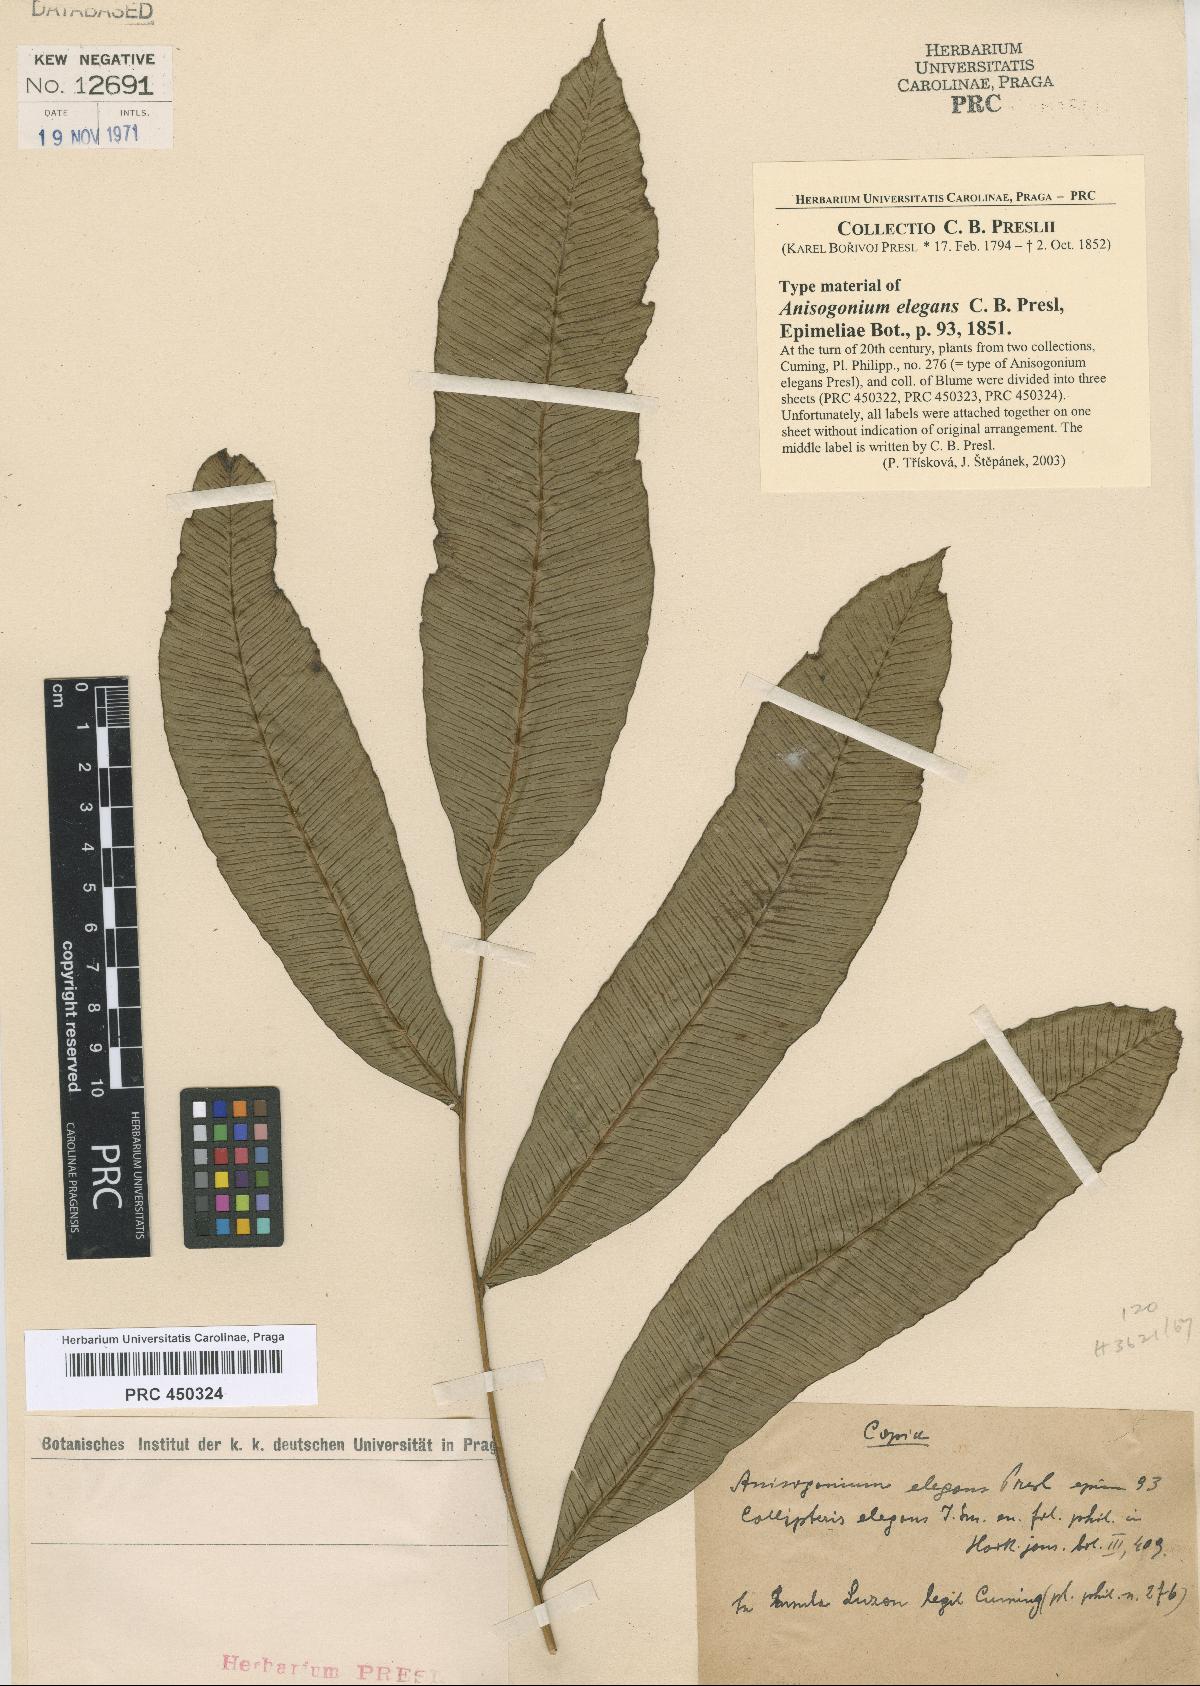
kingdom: Plantae
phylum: Tracheophyta
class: Polypodiopsida
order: Polypodiales
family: Athyriaceae
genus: Diplazium
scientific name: Diplazium fraxinifolium
